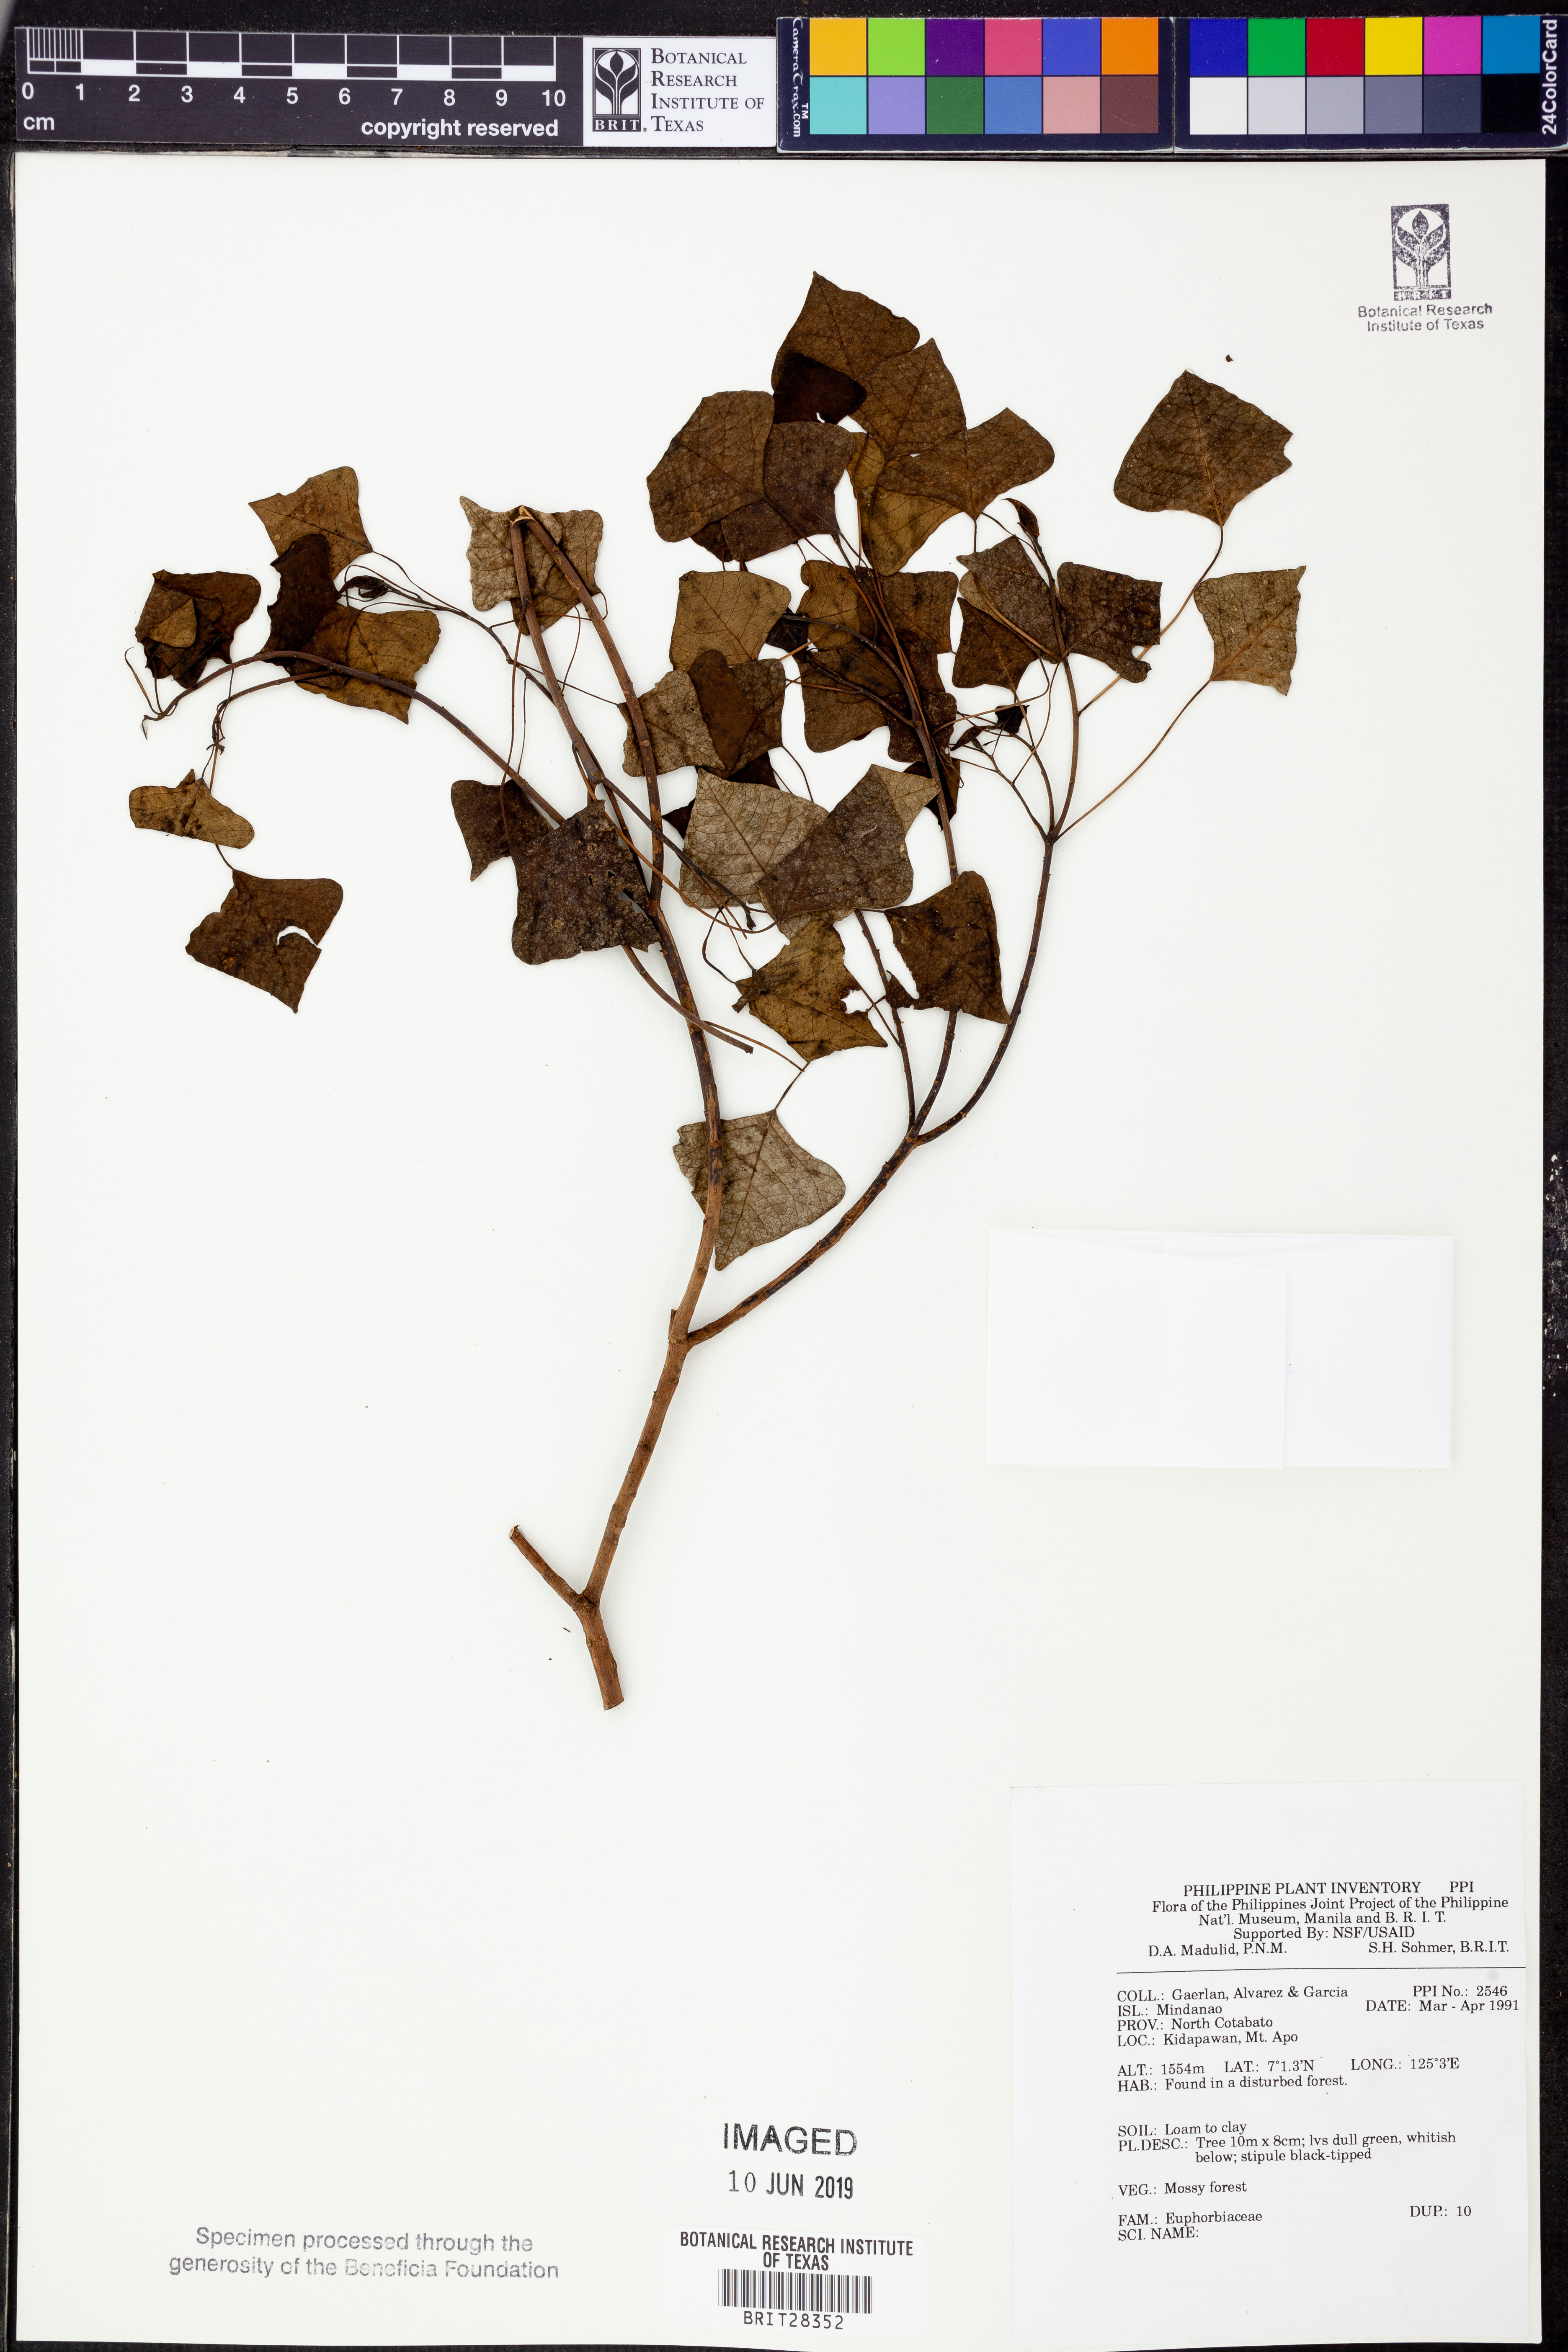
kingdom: Plantae
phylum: Tracheophyta
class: Magnoliopsida
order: Malpighiales
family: Euphorbiaceae
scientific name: Euphorbiaceae
